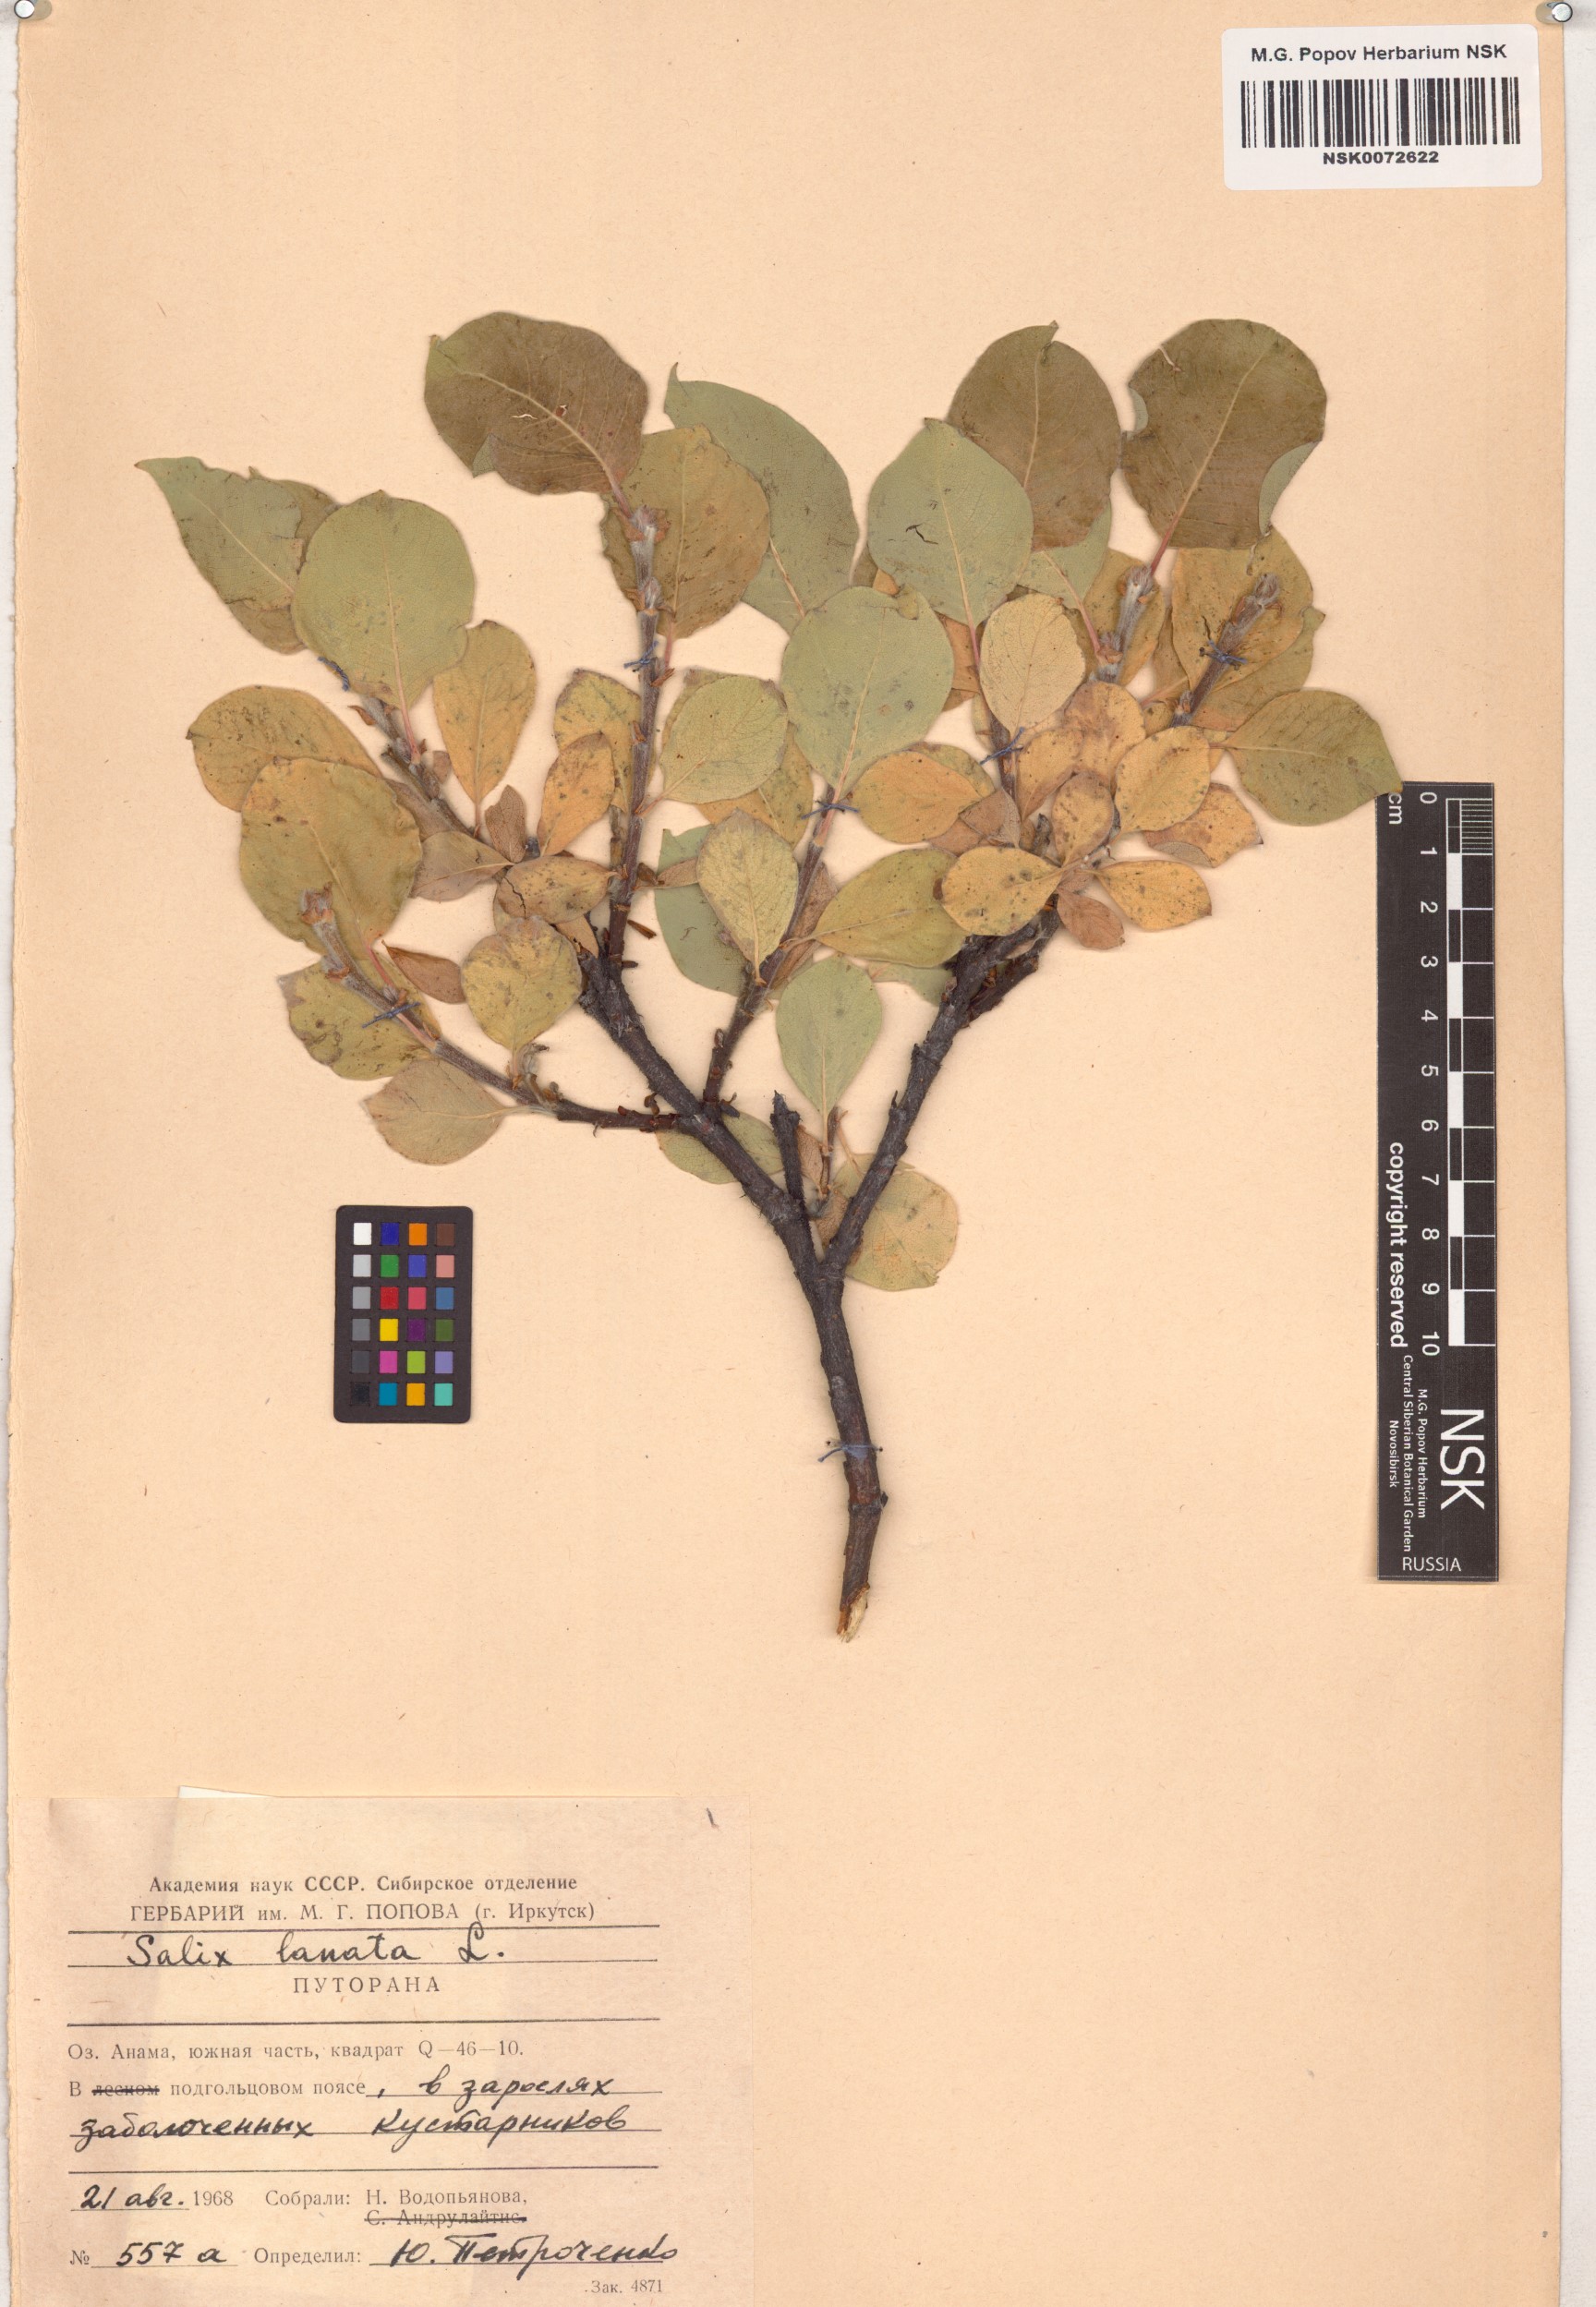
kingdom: Plantae
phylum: Tracheophyta
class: Magnoliopsida
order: Malpighiales
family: Salicaceae
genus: Salix
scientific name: Salix lanata
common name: Woolly willow
